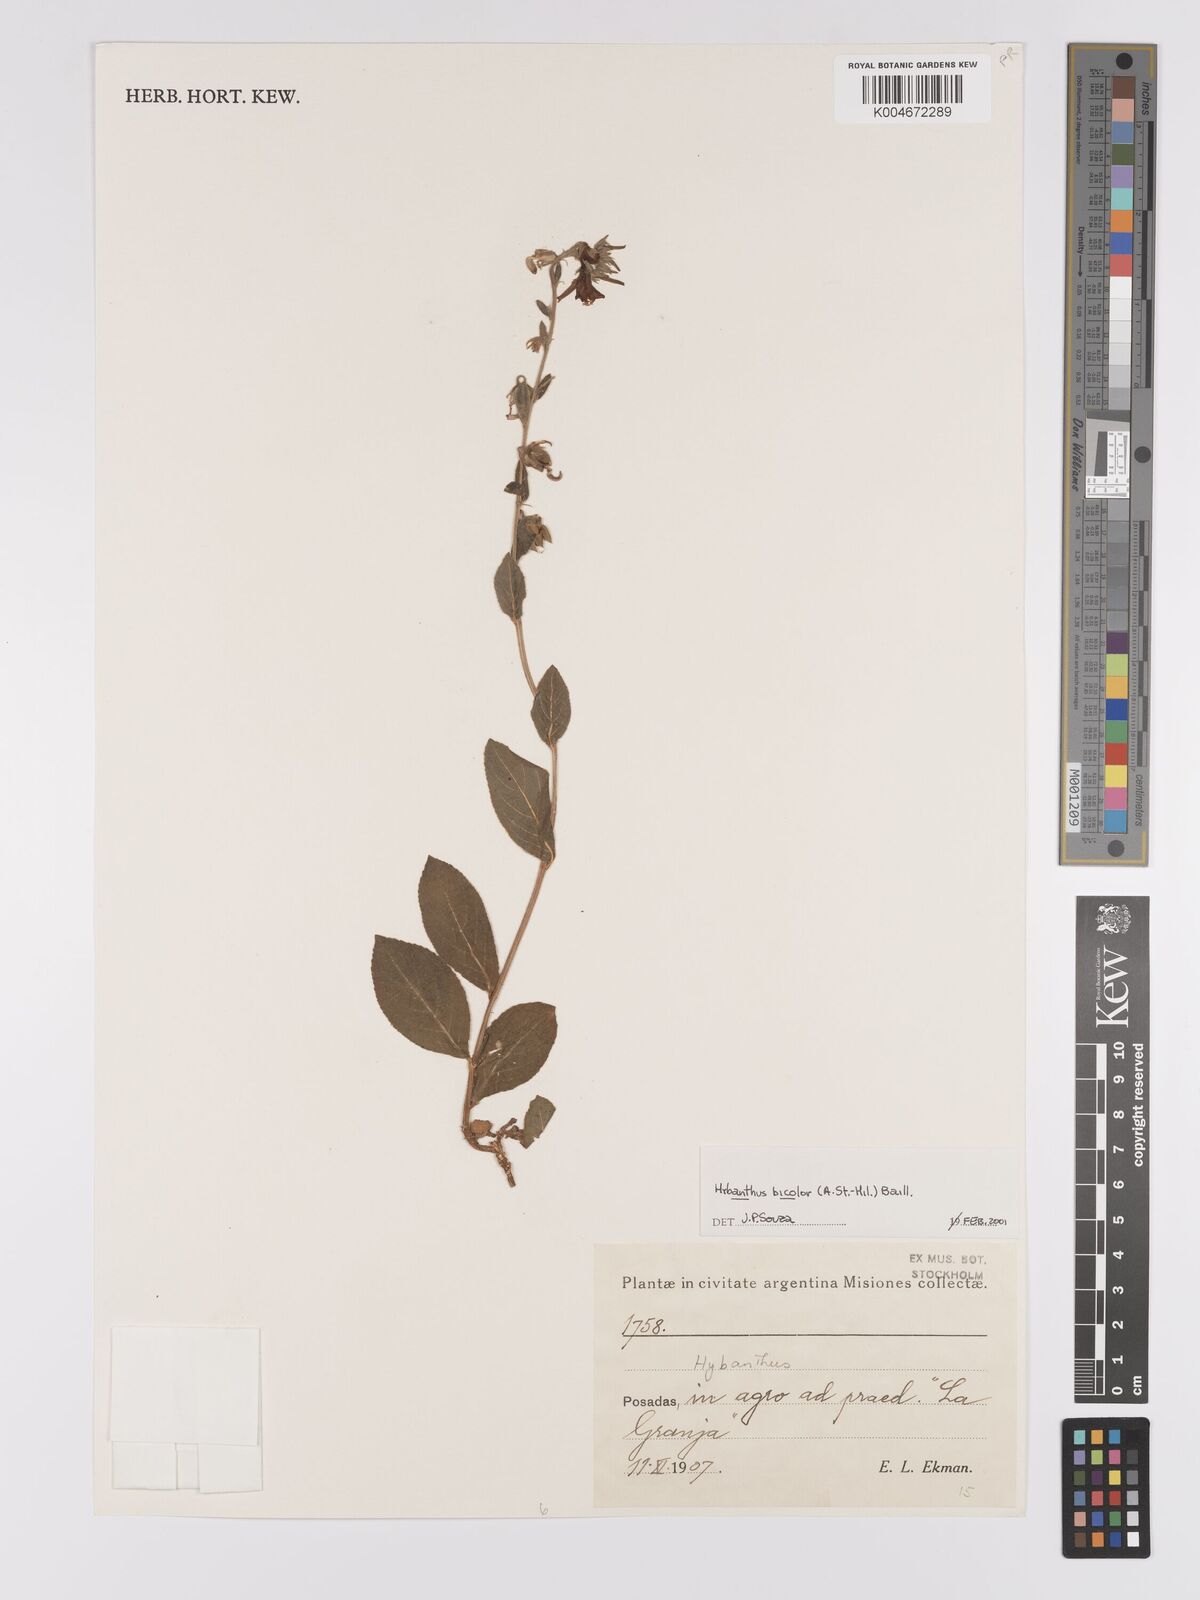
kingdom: Plantae
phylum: Tracheophyta
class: Magnoliopsida
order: Malpighiales
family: Violaceae
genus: Pombalia
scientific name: Pombalia bicolor
